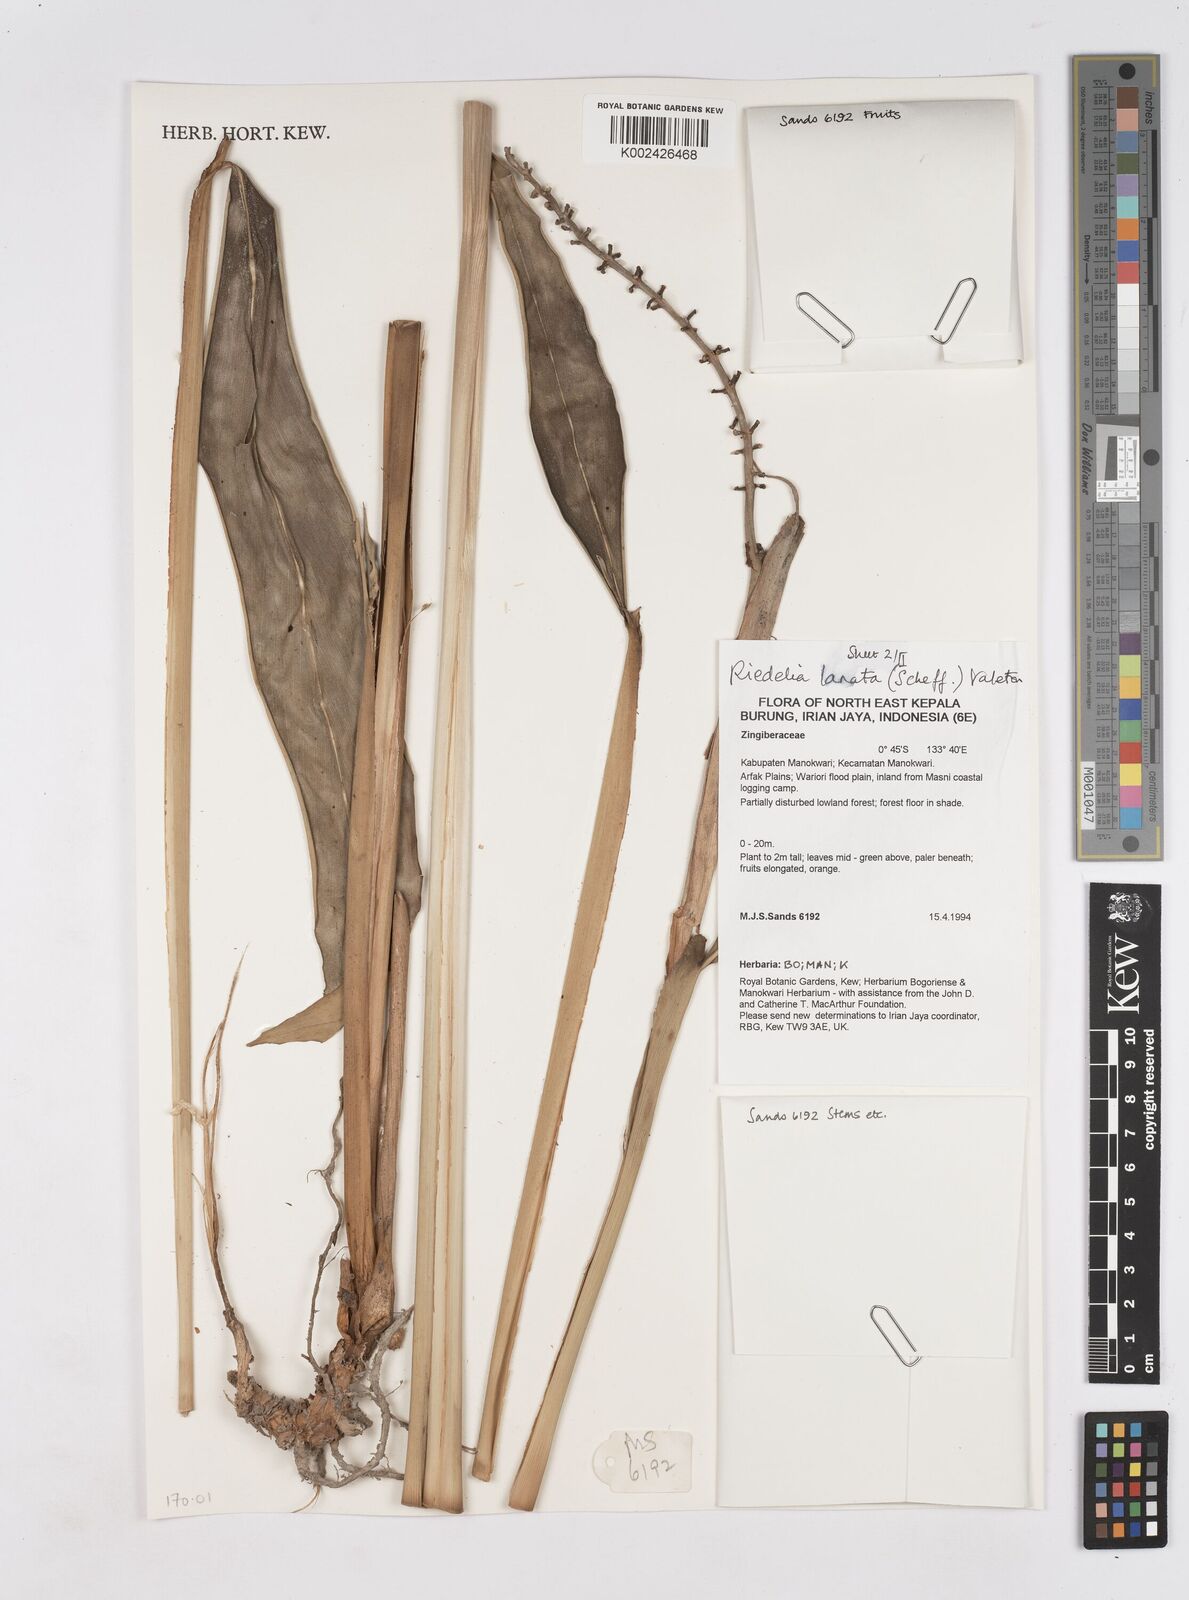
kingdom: Plantae
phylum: Tracheophyta
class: Liliopsida
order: Zingiberales
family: Zingiberaceae
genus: Riedelia
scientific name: Riedelia lanata
